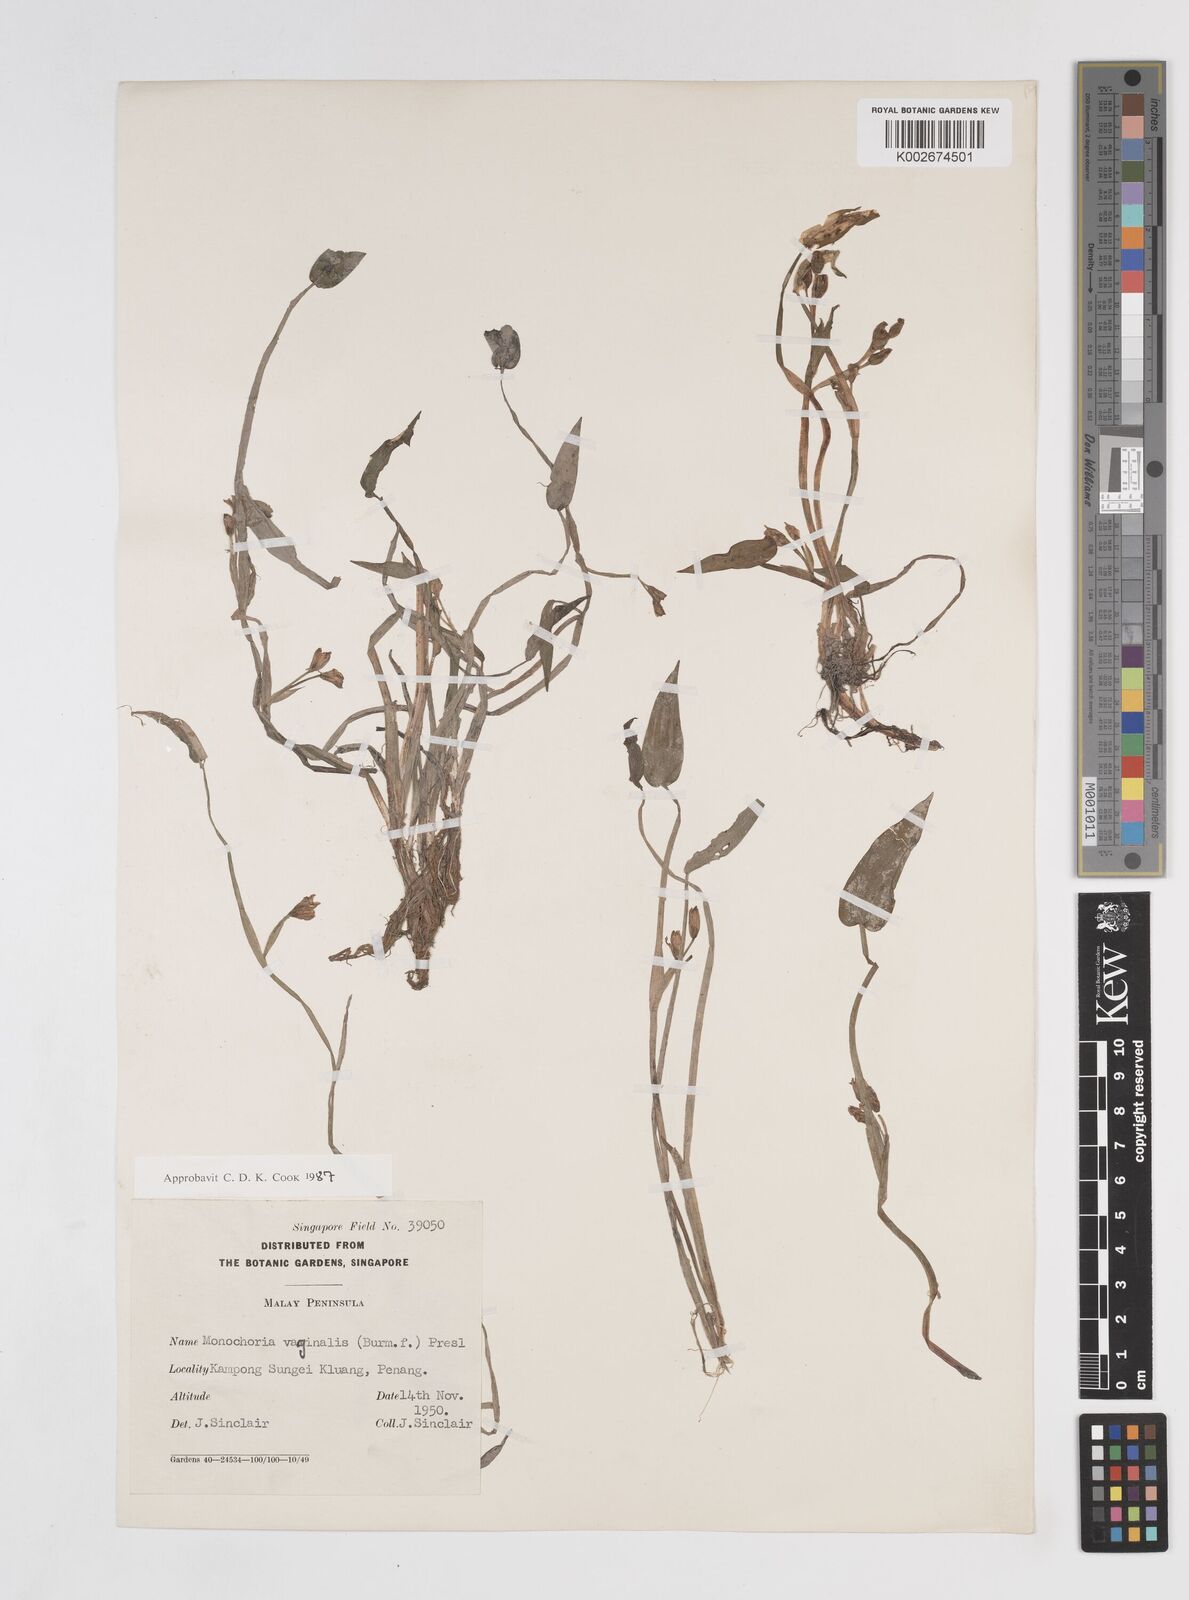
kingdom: Plantae
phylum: Tracheophyta
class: Liliopsida
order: Commelinales
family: Pontederiaceae
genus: Pontederia
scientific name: Pontederia vaginalis
